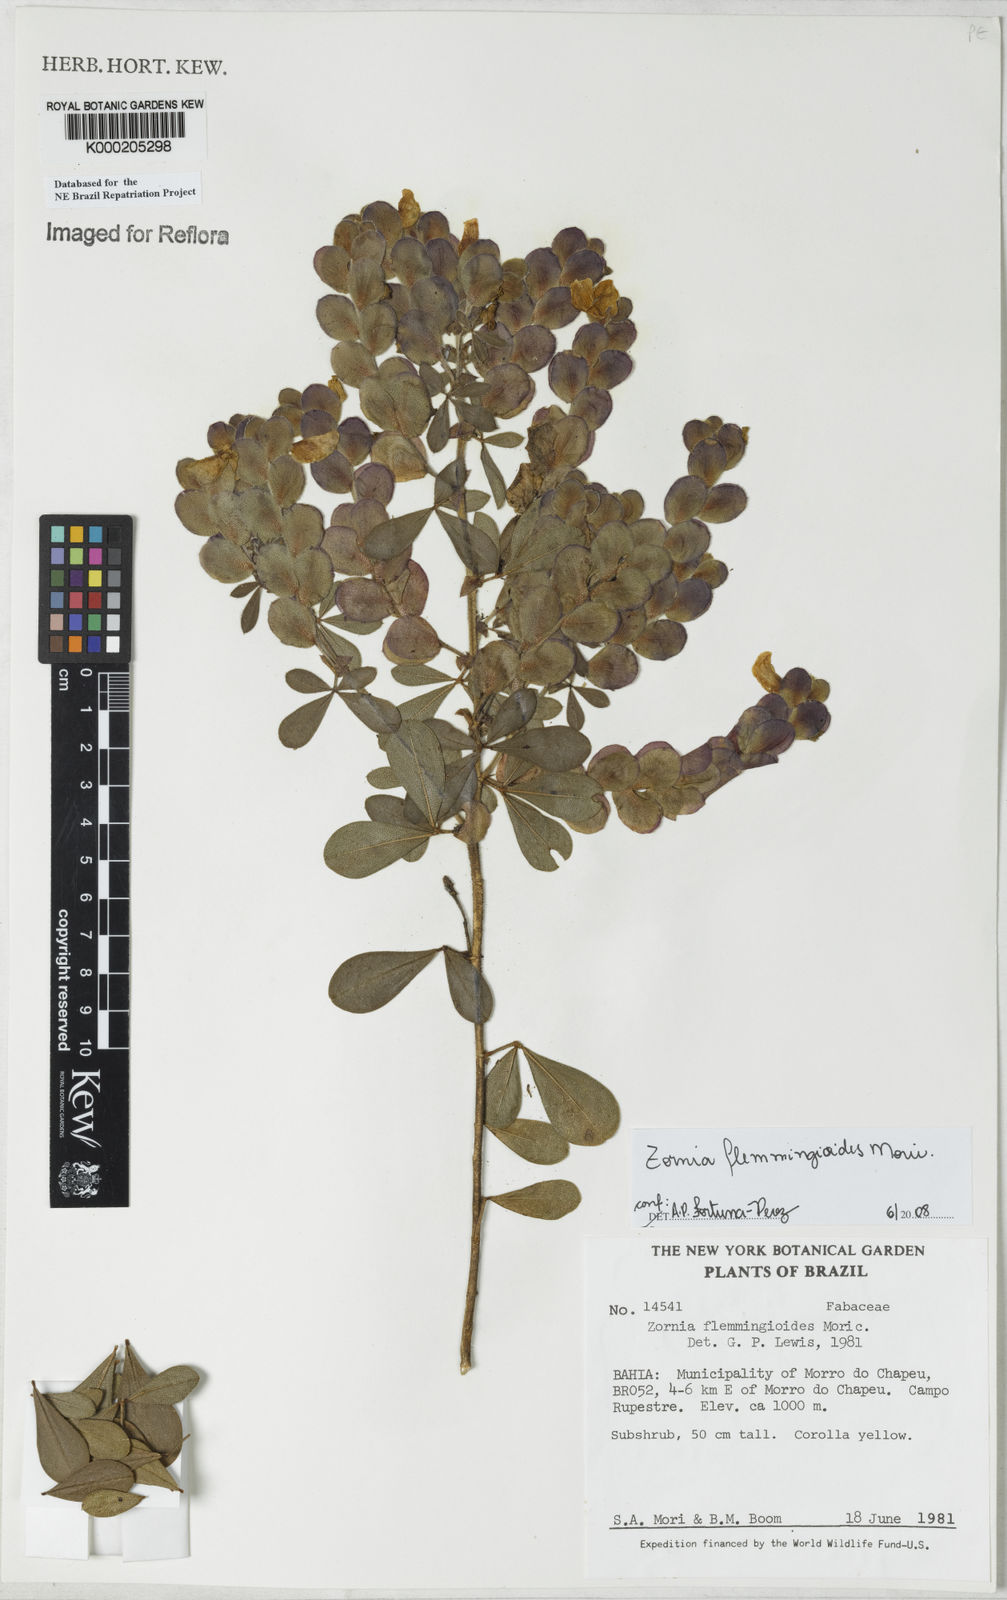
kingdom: Plantae
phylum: Tracheophyta
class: Magnoliopsida
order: Fabales
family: Fabaceae
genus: Zornia
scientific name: Zornia flemmingioides
